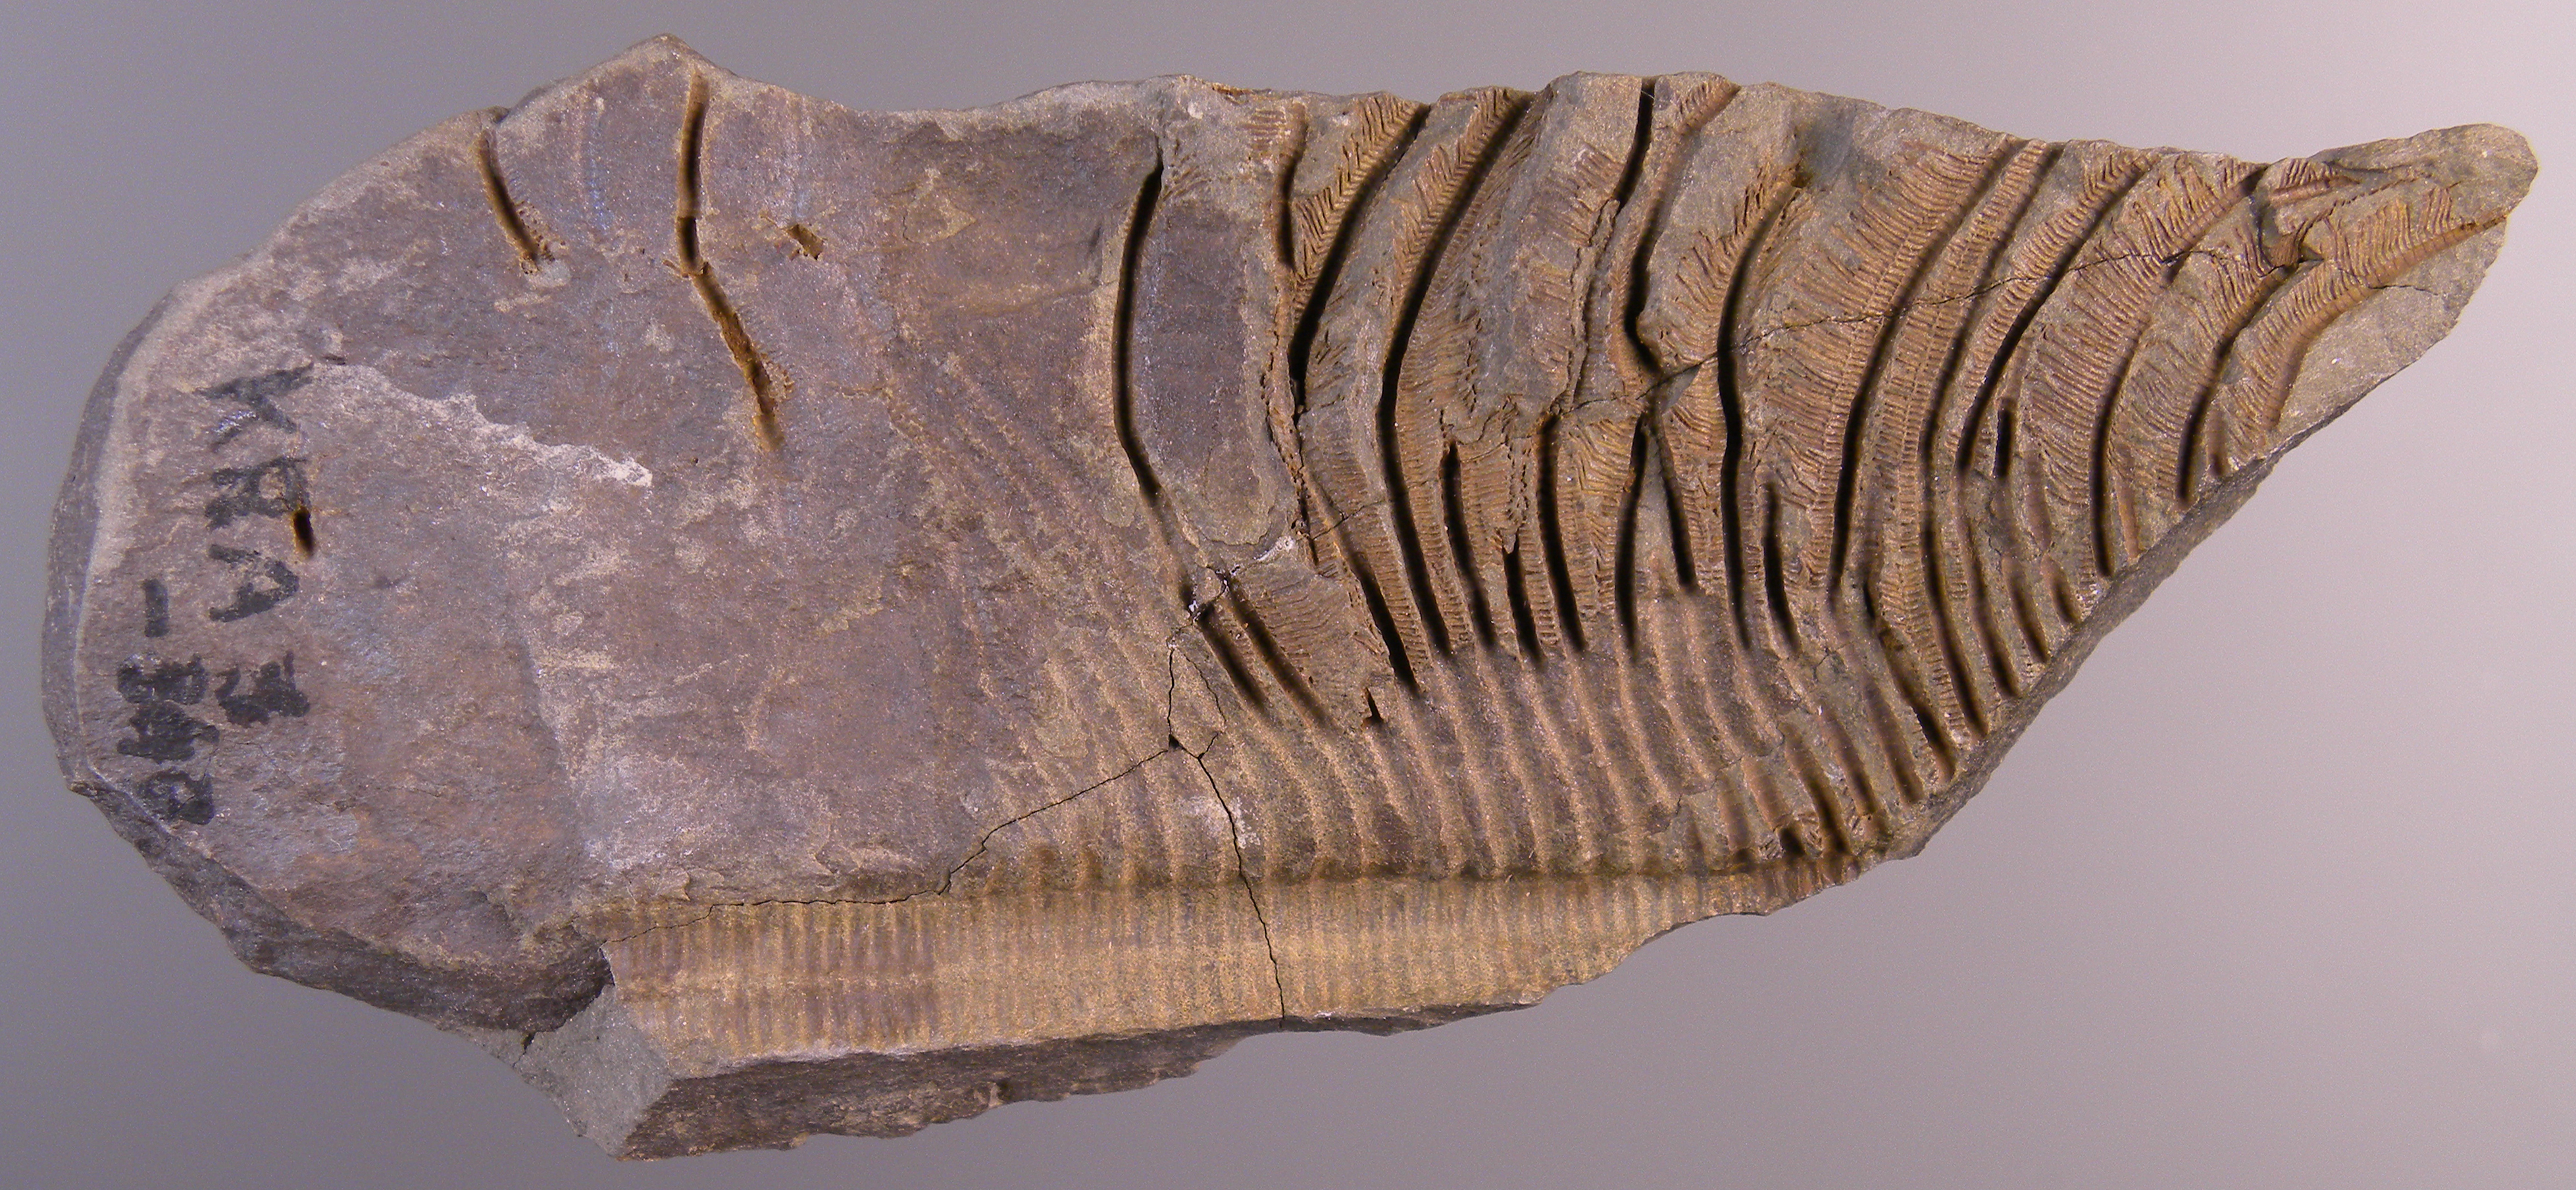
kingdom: Animalia
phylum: Echinodermata
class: Crinoidea
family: Melocrinitidae
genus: Ctenocrinus
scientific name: Ctenocrinus
